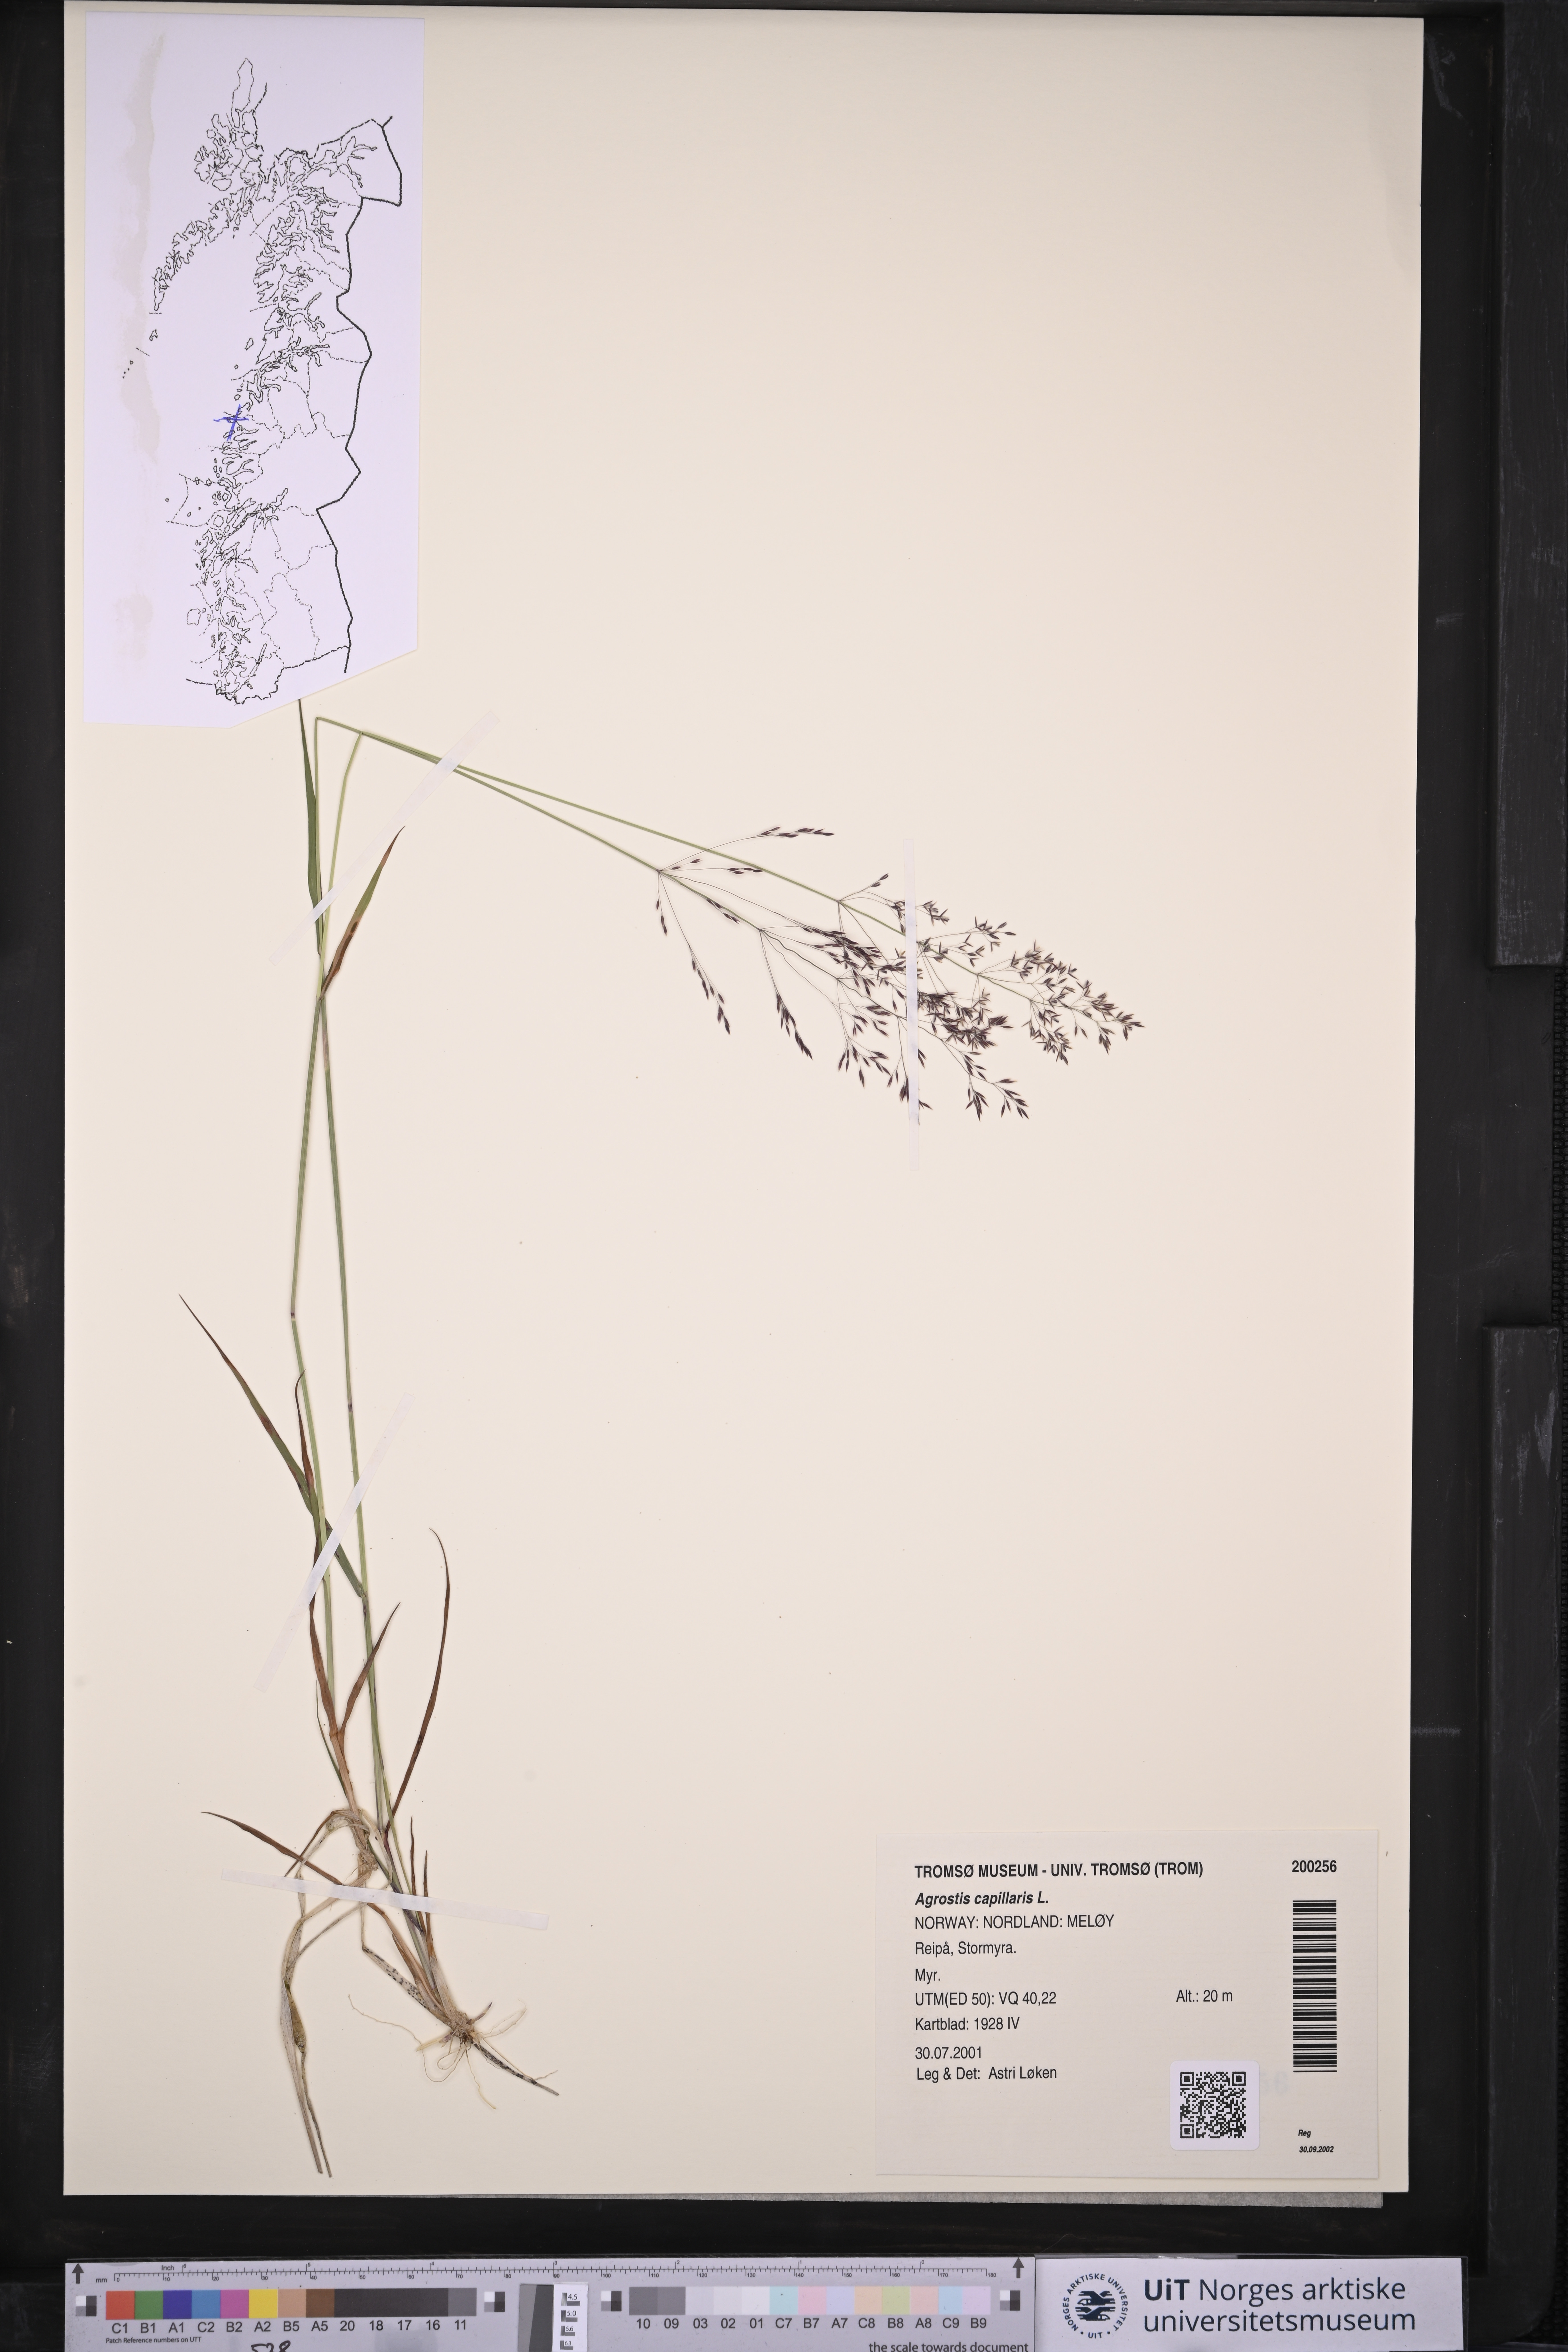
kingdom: Plantae
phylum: Tracheophyta
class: Liliopsida
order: Poales
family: Poaceae
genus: Agrostis
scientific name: Agrostis capillaris
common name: Colonial bentgrass
